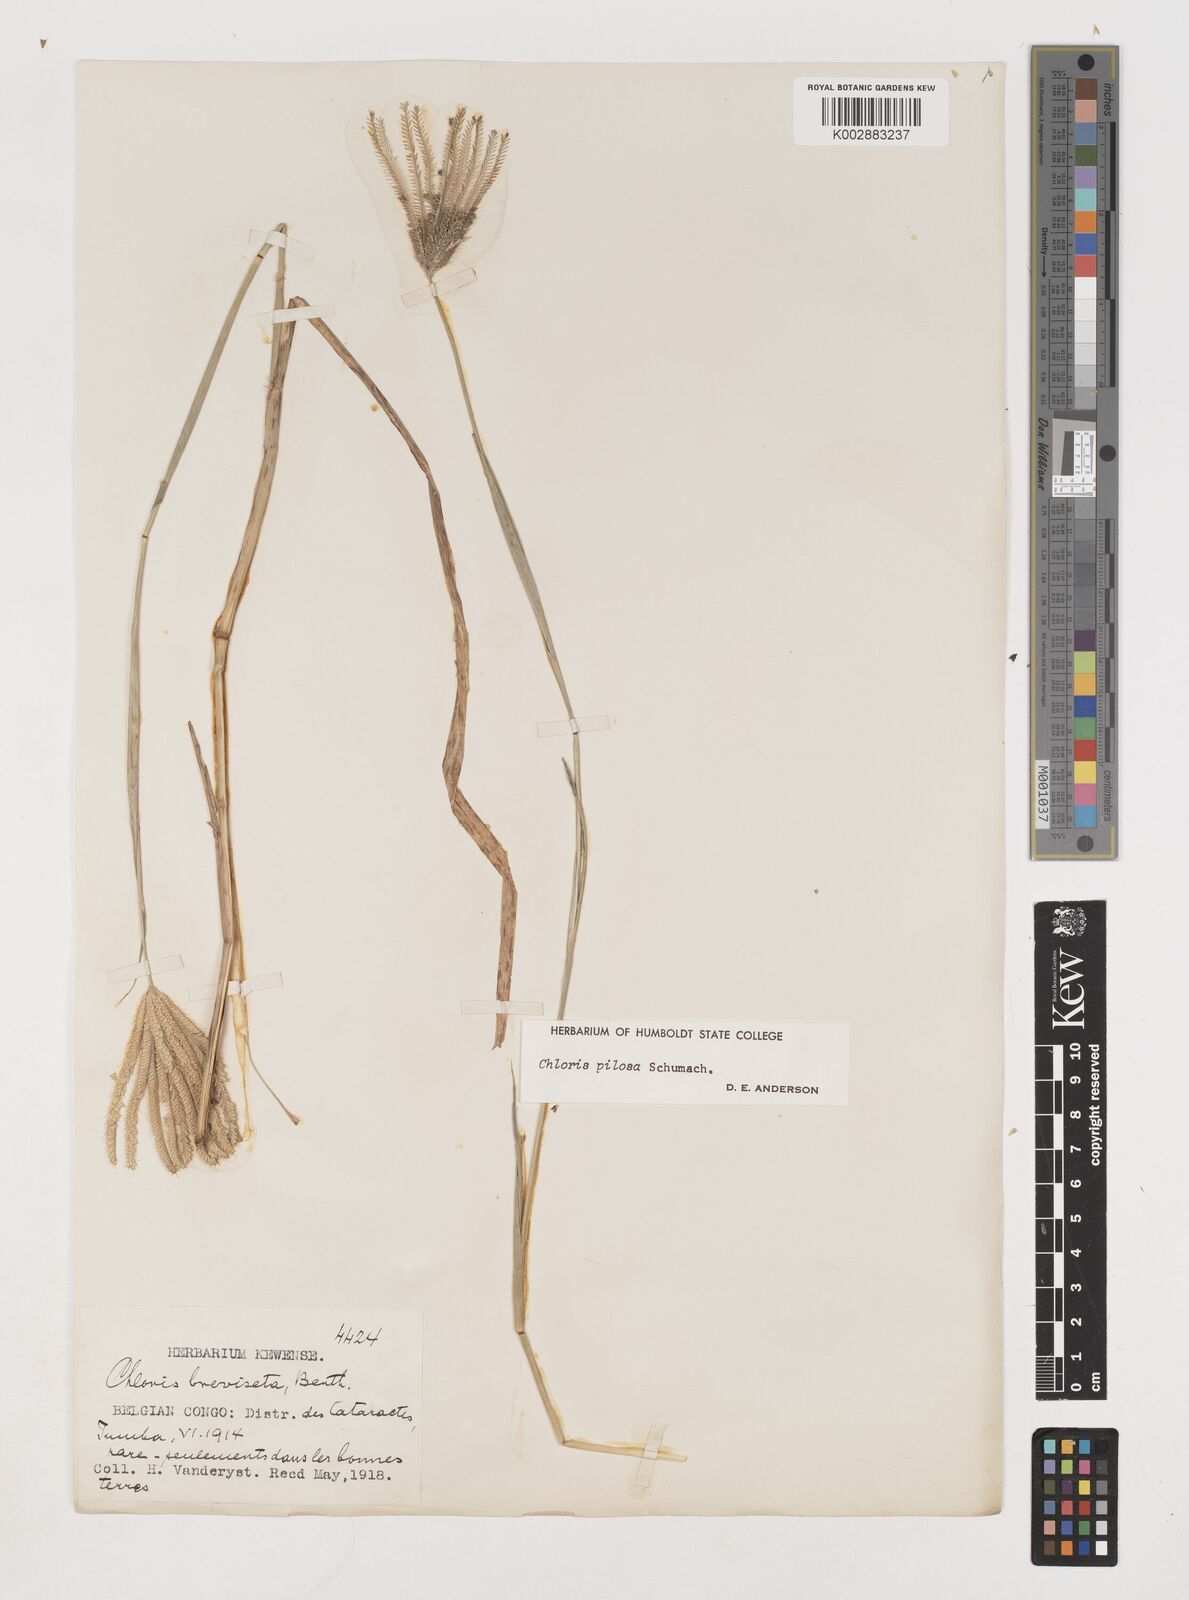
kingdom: Plantae
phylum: Tracheophyta
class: Liliopsida
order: Poales
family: Poaceae
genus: Chloris
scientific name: Chloris pilosa
